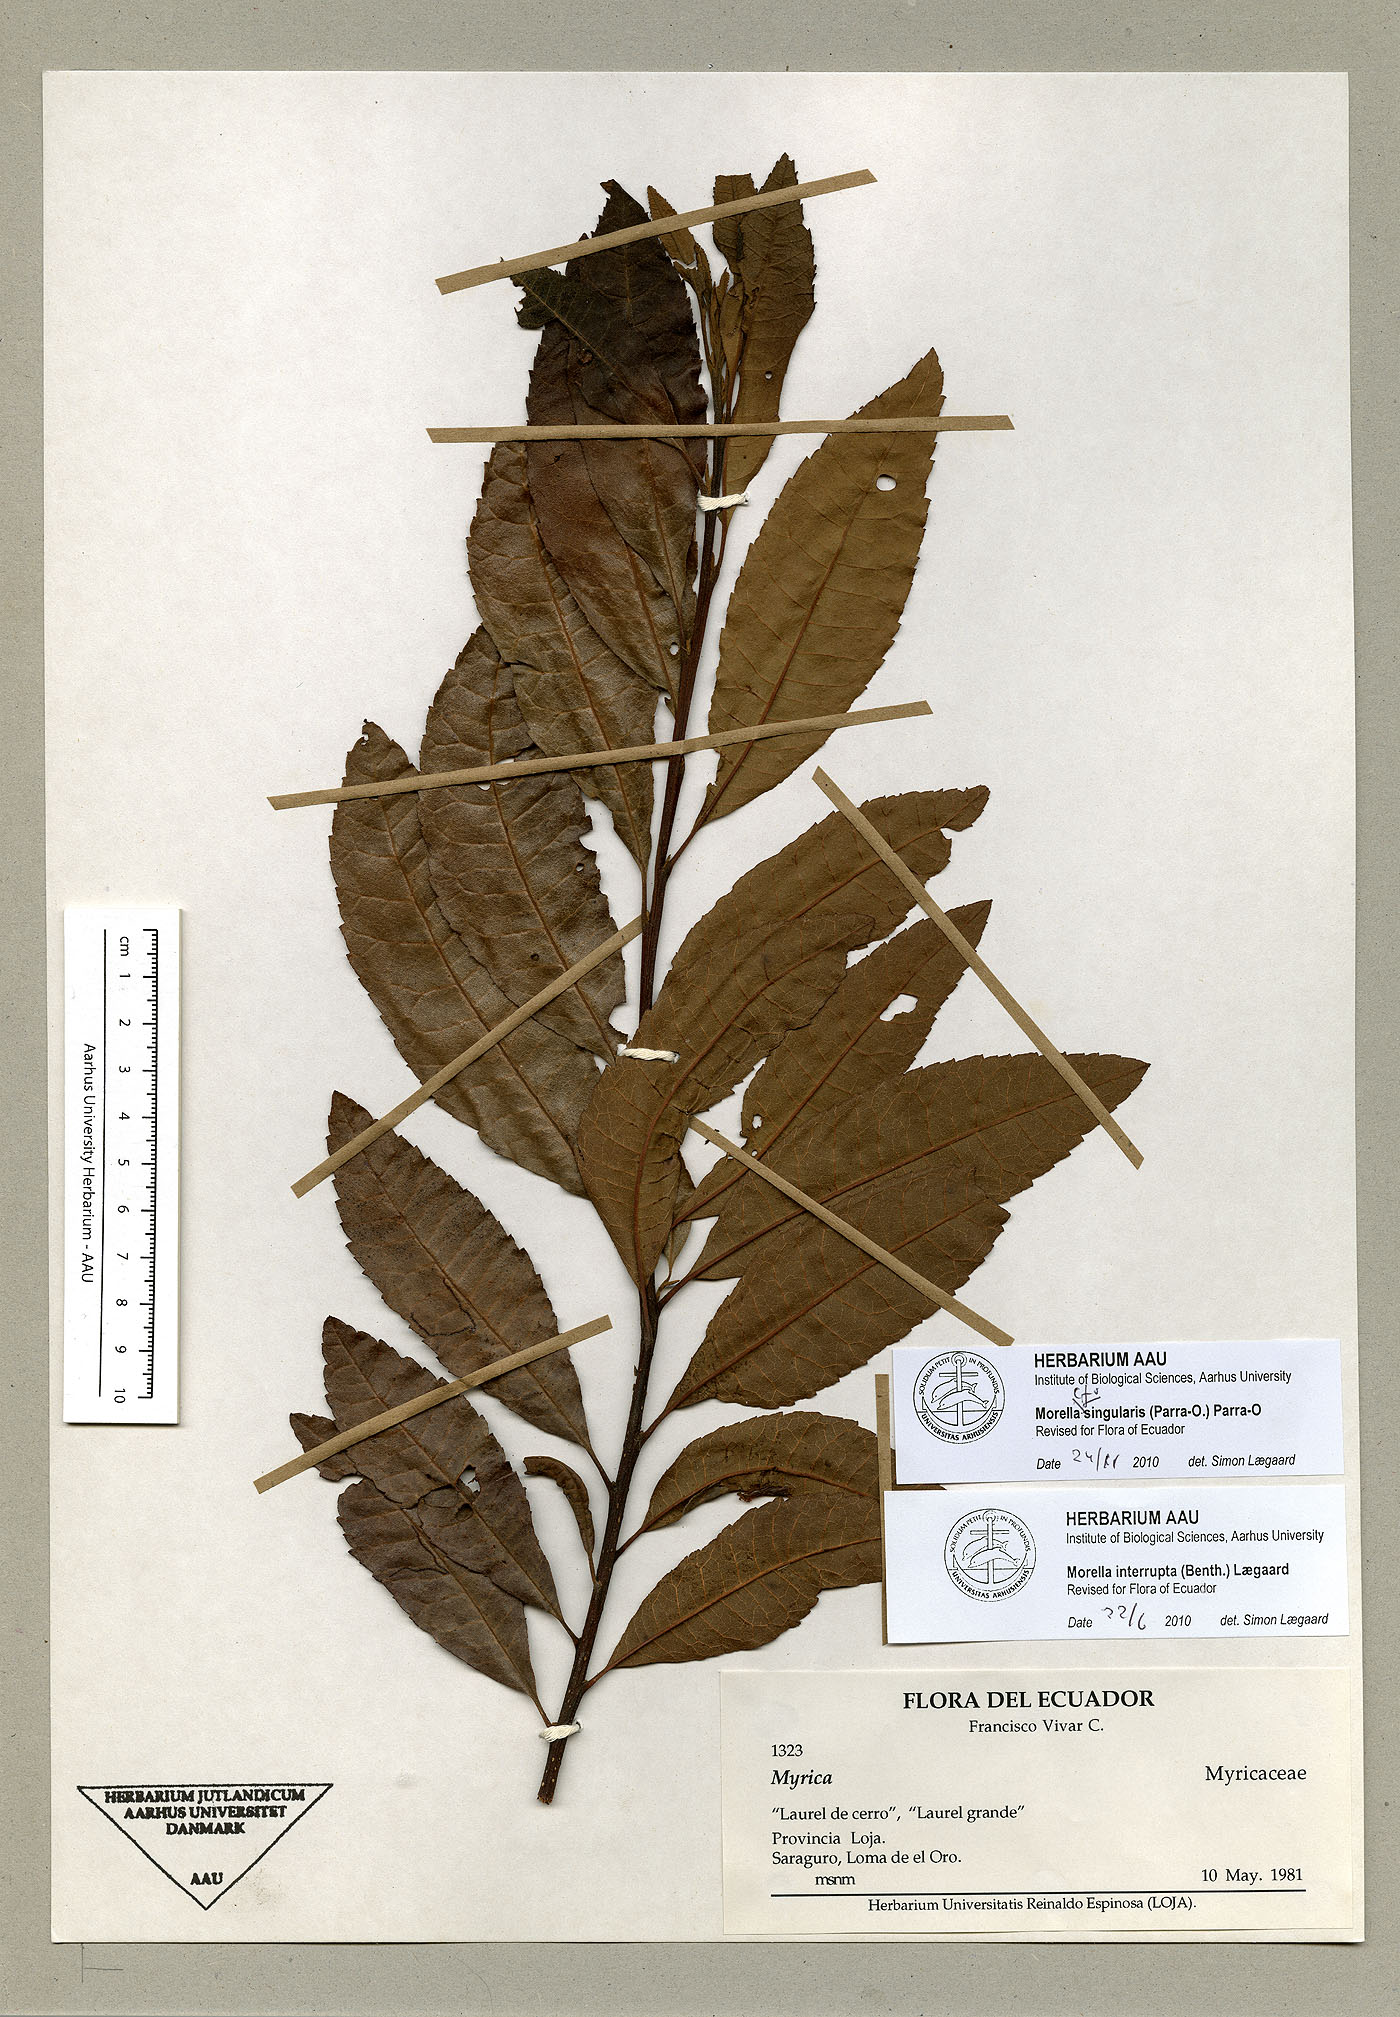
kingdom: Plantae
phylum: Tracheophyta
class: Magnoliopsida
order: Fagales
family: Myricaceae
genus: Morella
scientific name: Morella singularis
